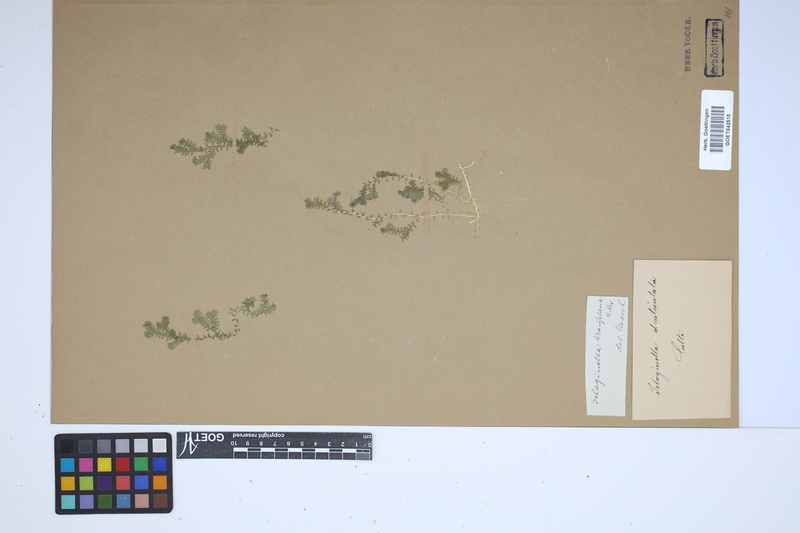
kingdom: Plantae
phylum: Tracheophyta
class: Lycopodiopsida
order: Selaginellales
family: Selaginellaceae
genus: Selaginella
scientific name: Selaginella kraussiana
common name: Krauss' spikemoss
